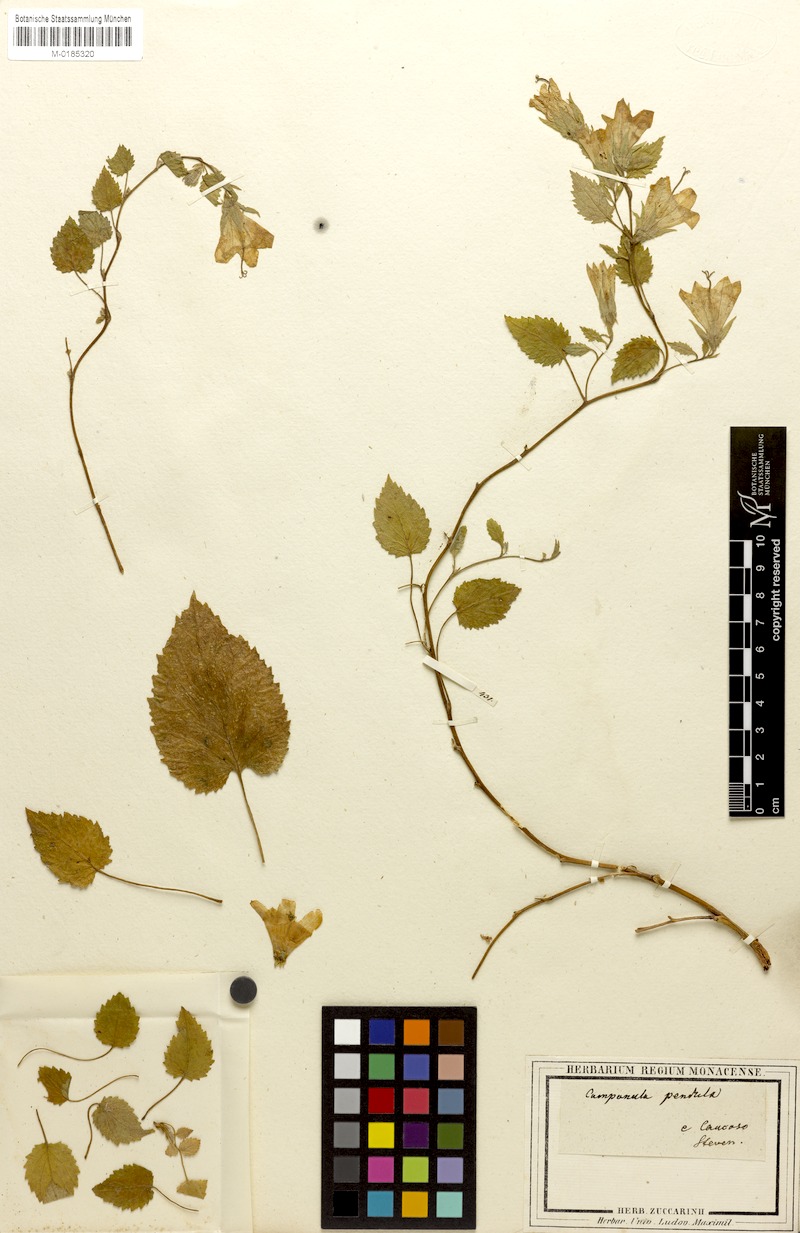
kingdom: Plantae
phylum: Tracheophyta
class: Magnoliopsida
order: Asterales
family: Campanulaceae
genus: Campanula
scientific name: Campanula pendula
